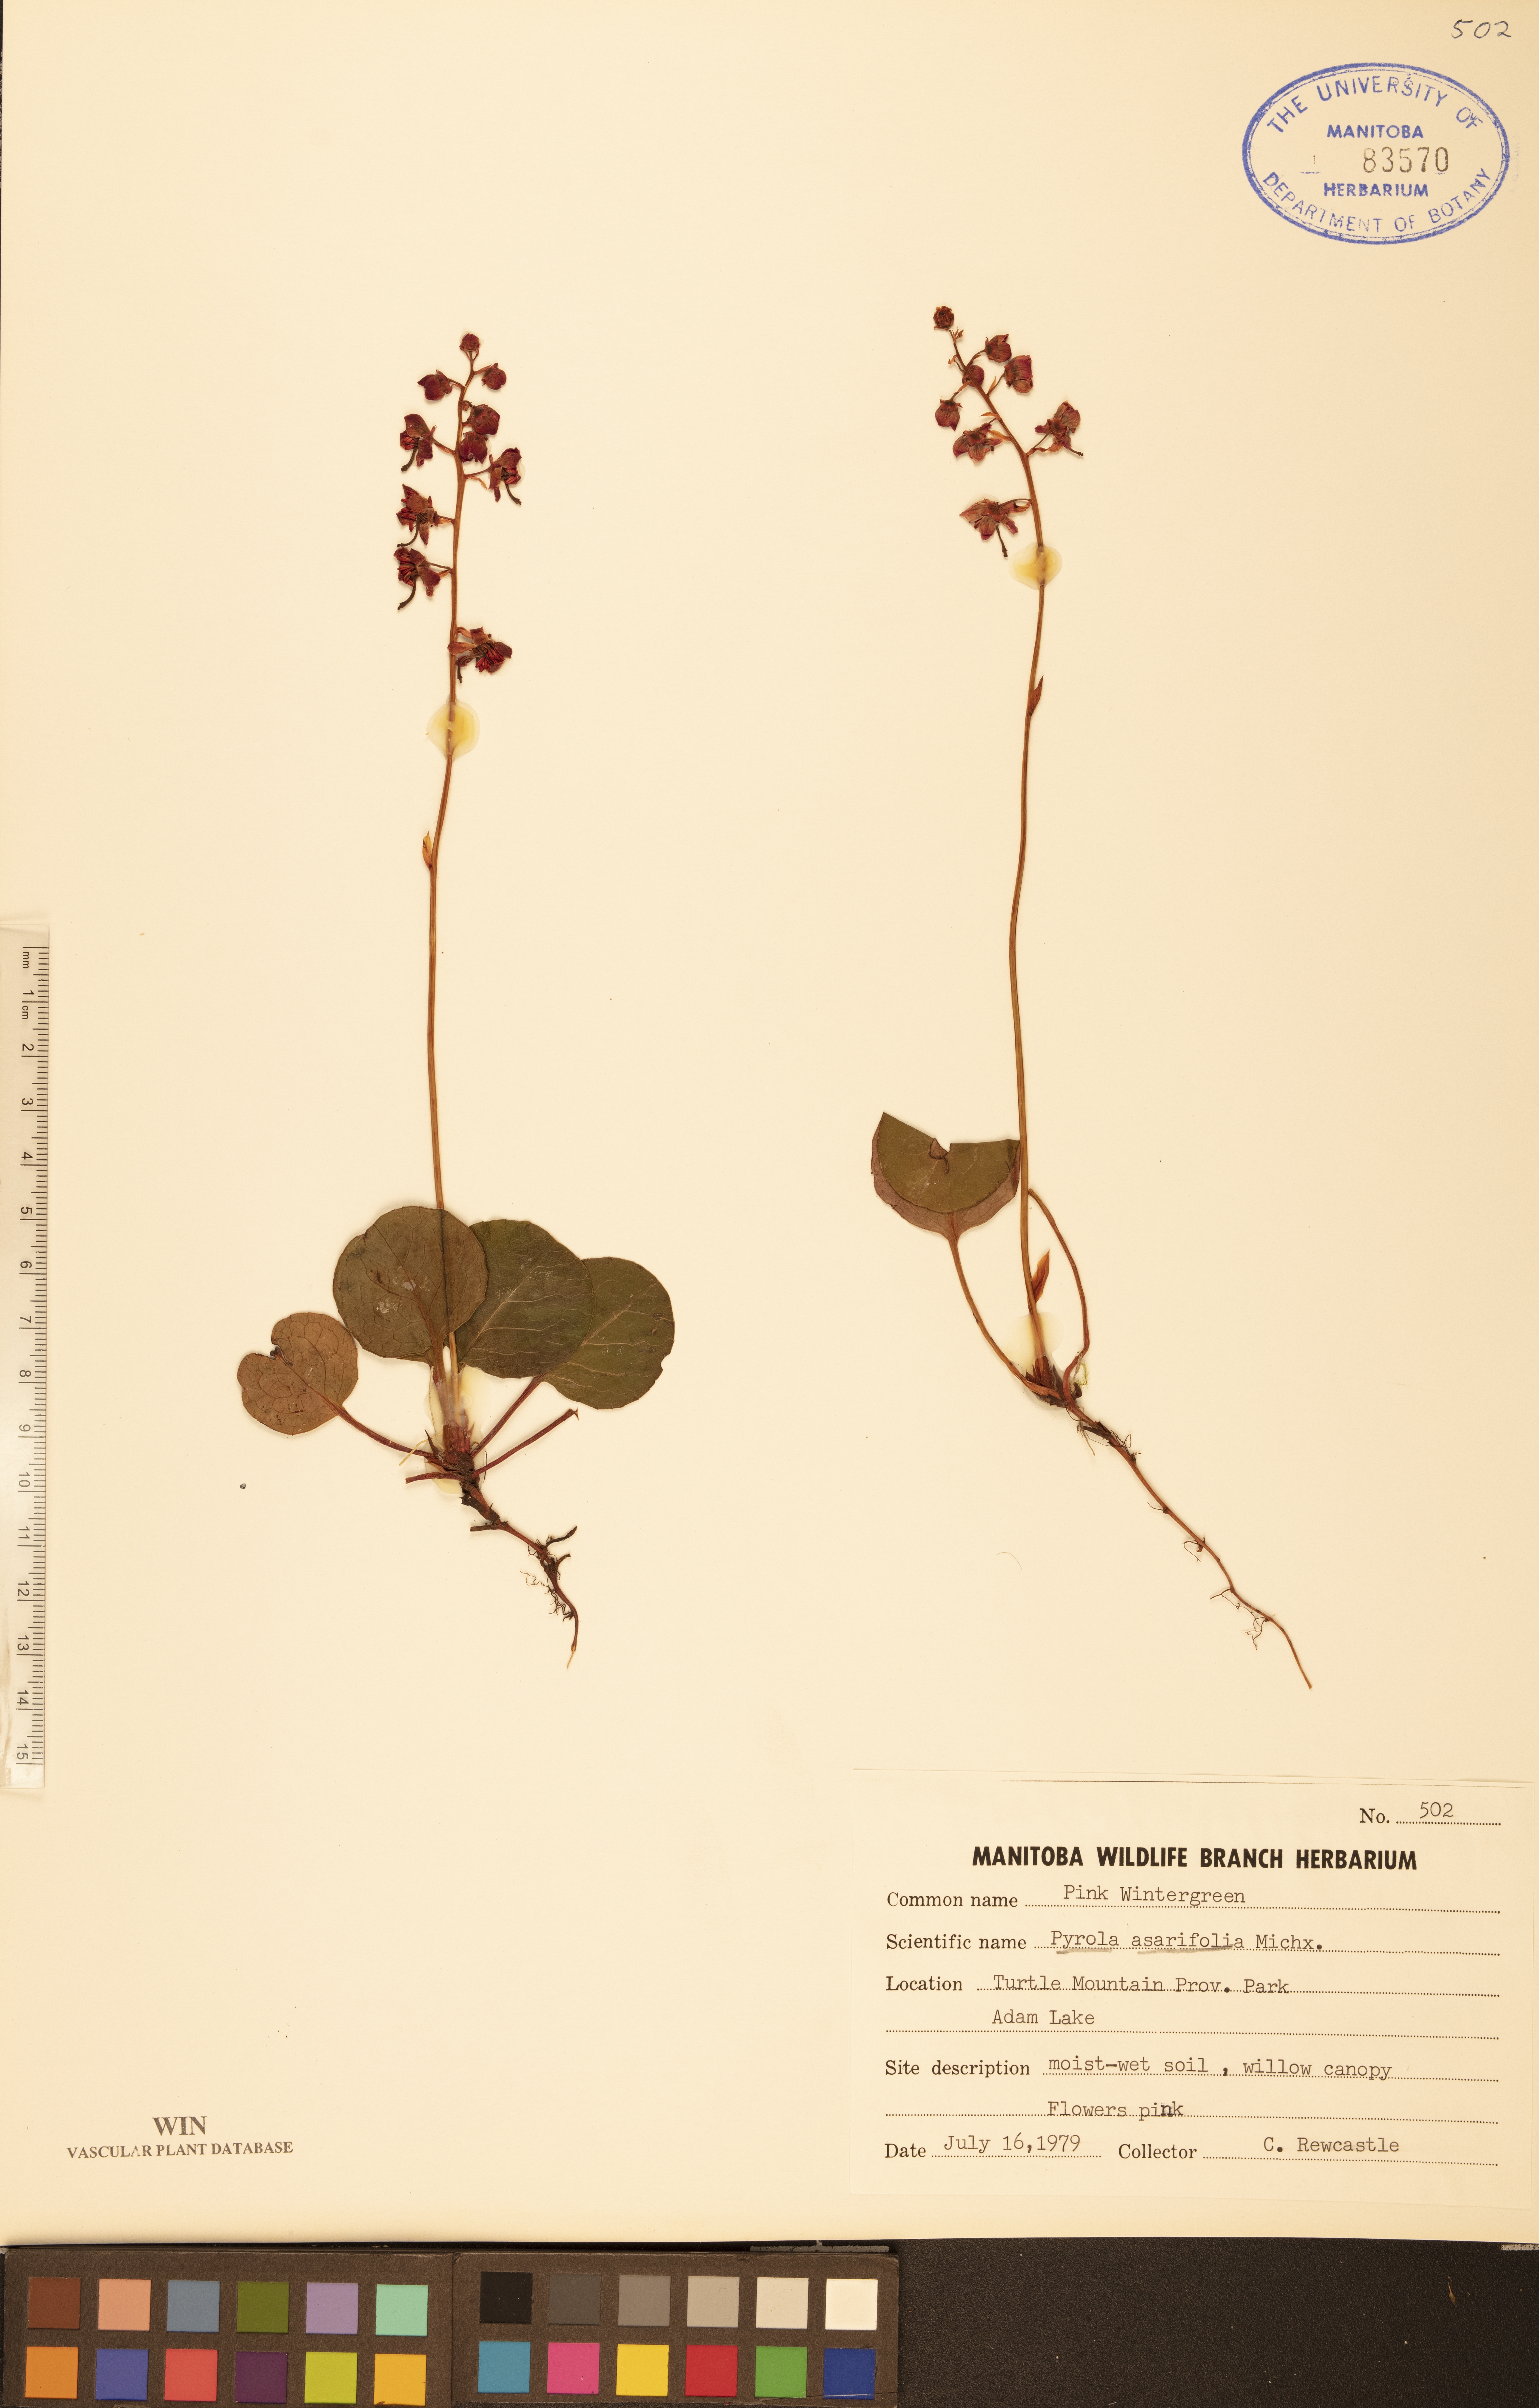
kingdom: Plantae
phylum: Tracheophyta
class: Magnoliopsida
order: Ericales
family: Ericaceae
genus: Pyrola
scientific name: Pyrola asarifolia
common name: Bog wintergreen
